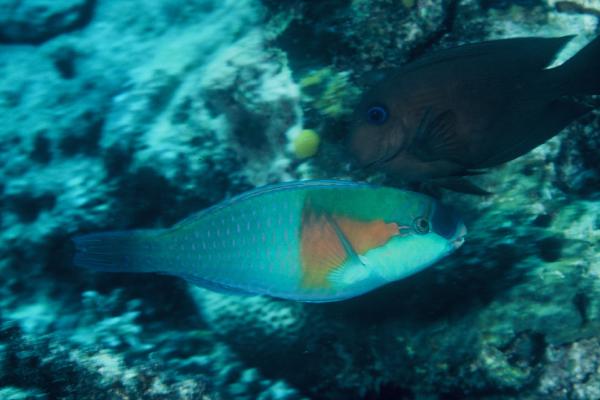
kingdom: Animalia
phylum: Chordata
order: Perciformes
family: Scaridae
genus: Chlorurus
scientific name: Chlorurus bowersi
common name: Bower's parrotfish
